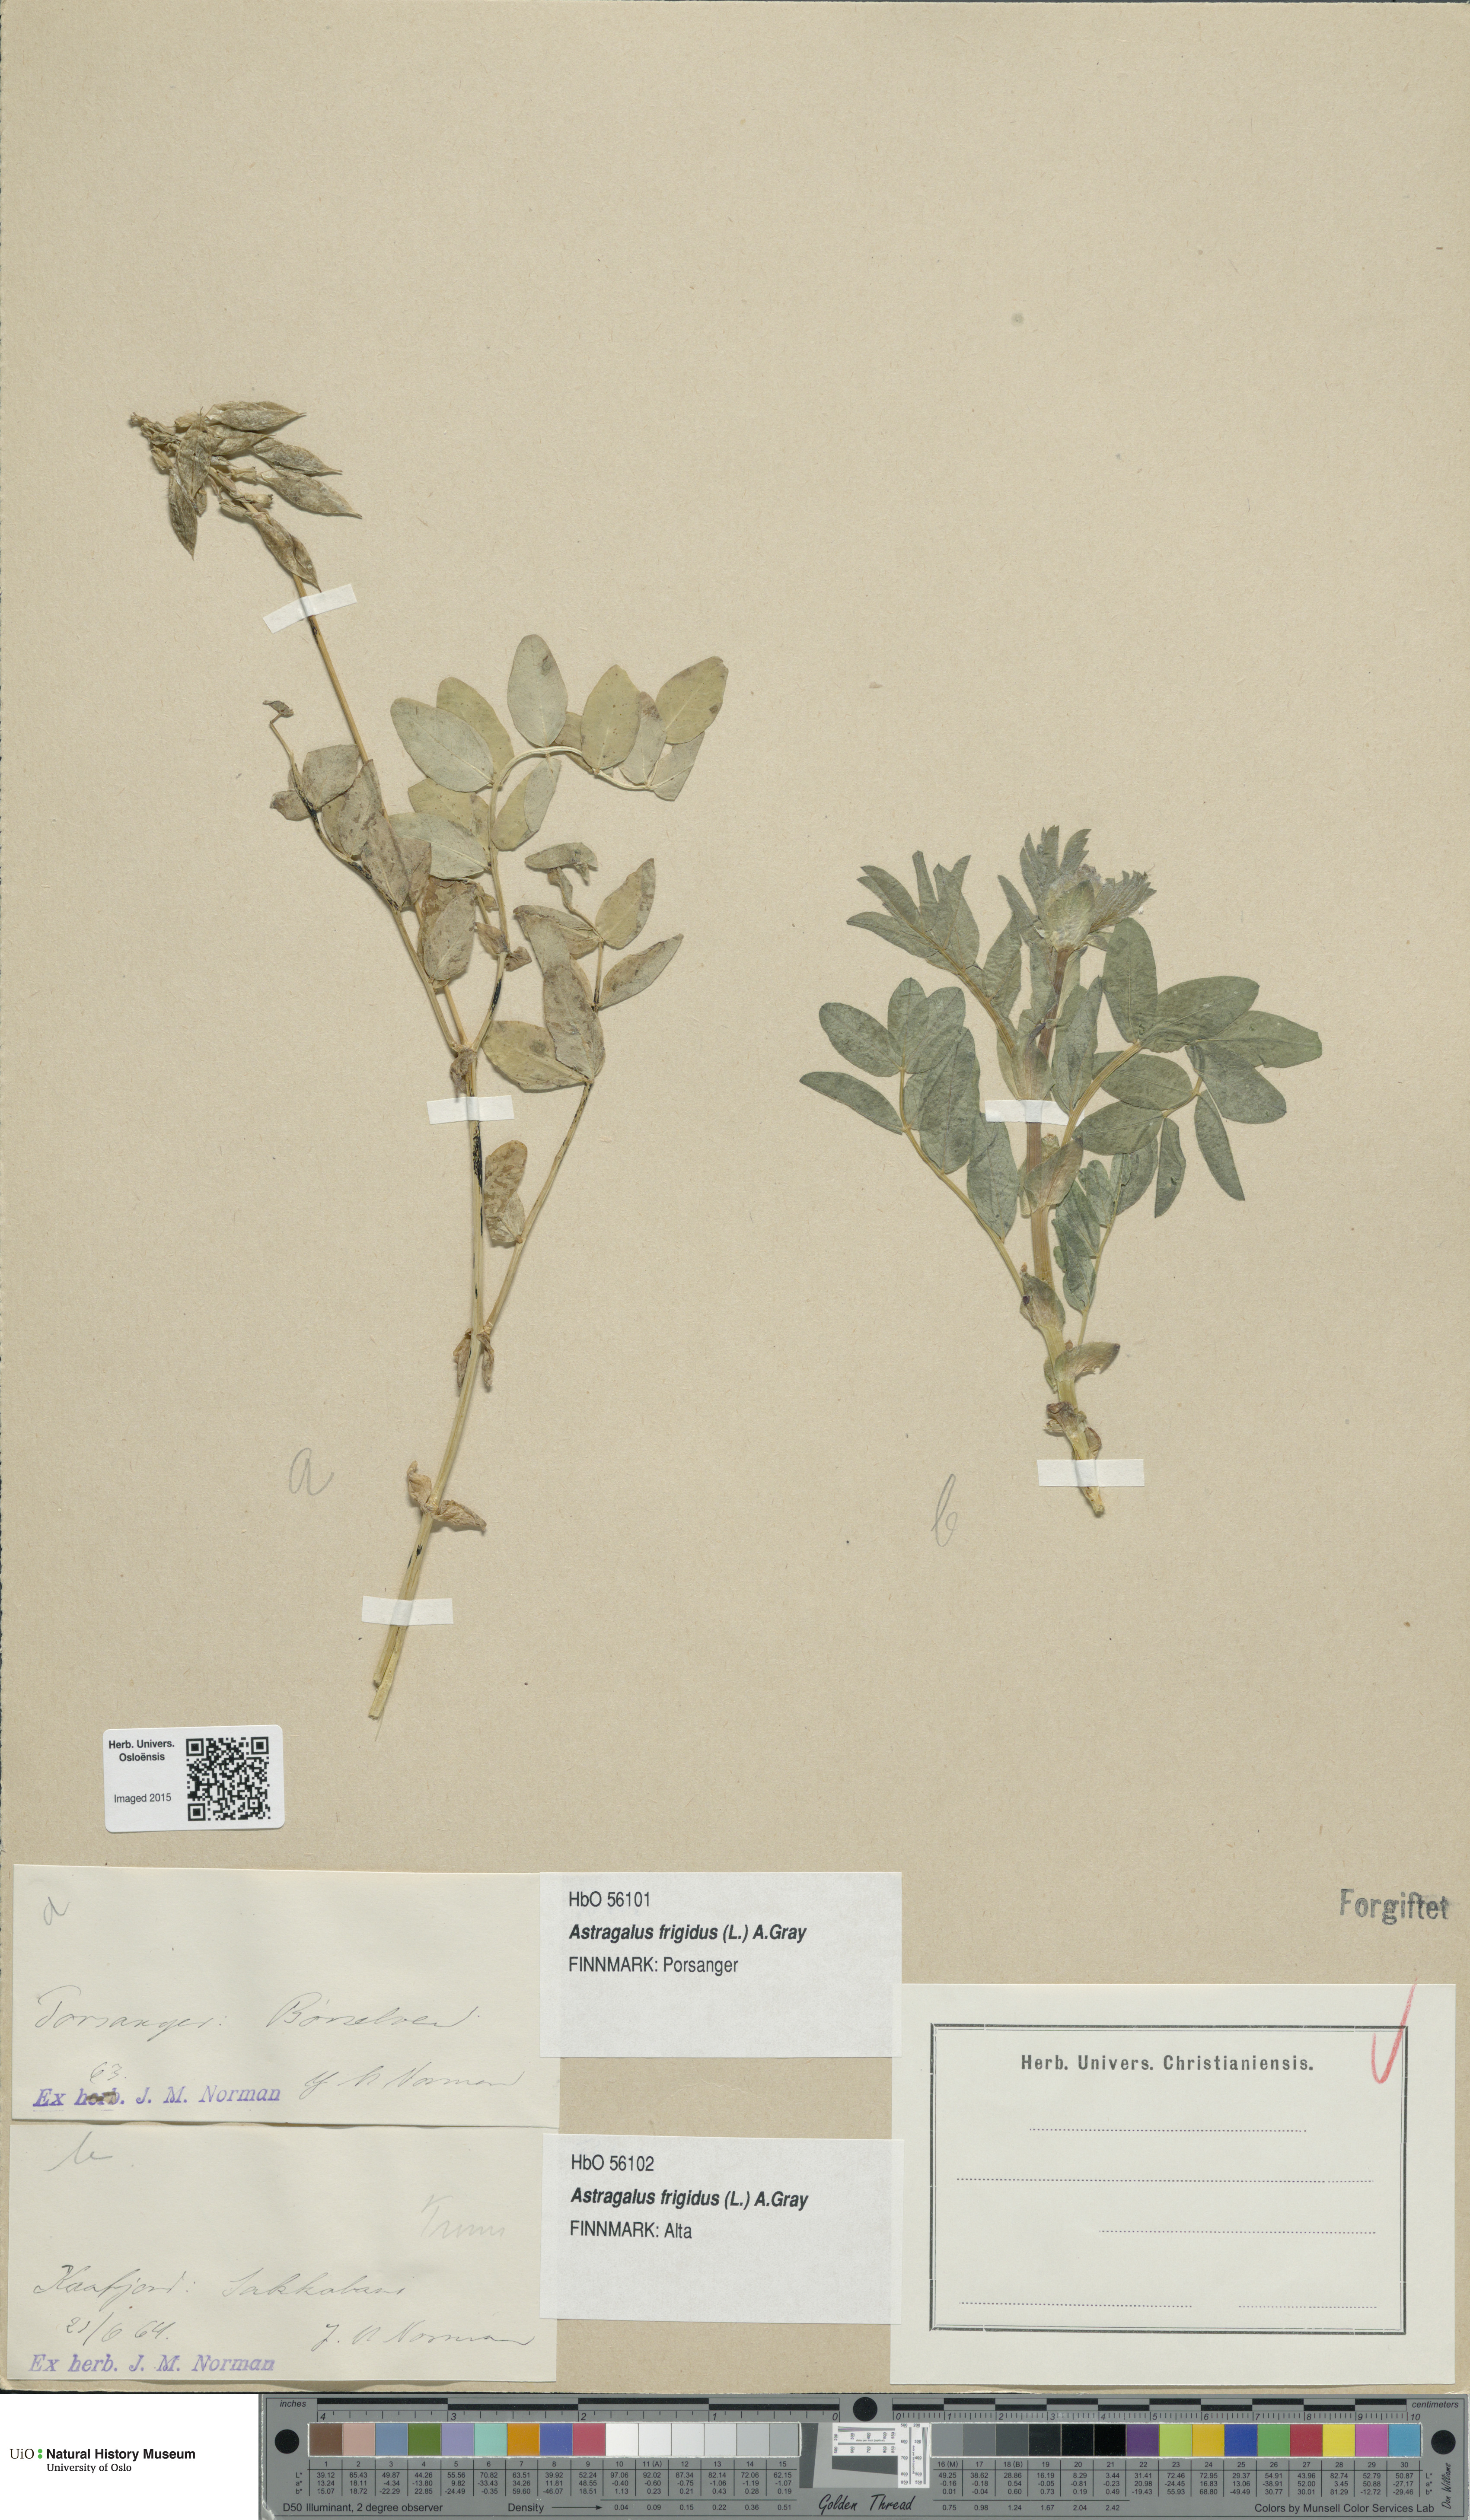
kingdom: Plantae
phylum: Tracheophyta
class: Magnoliopsida
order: Fabales
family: Fabaceae
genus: Astragalus
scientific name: Astragalus frigidus
